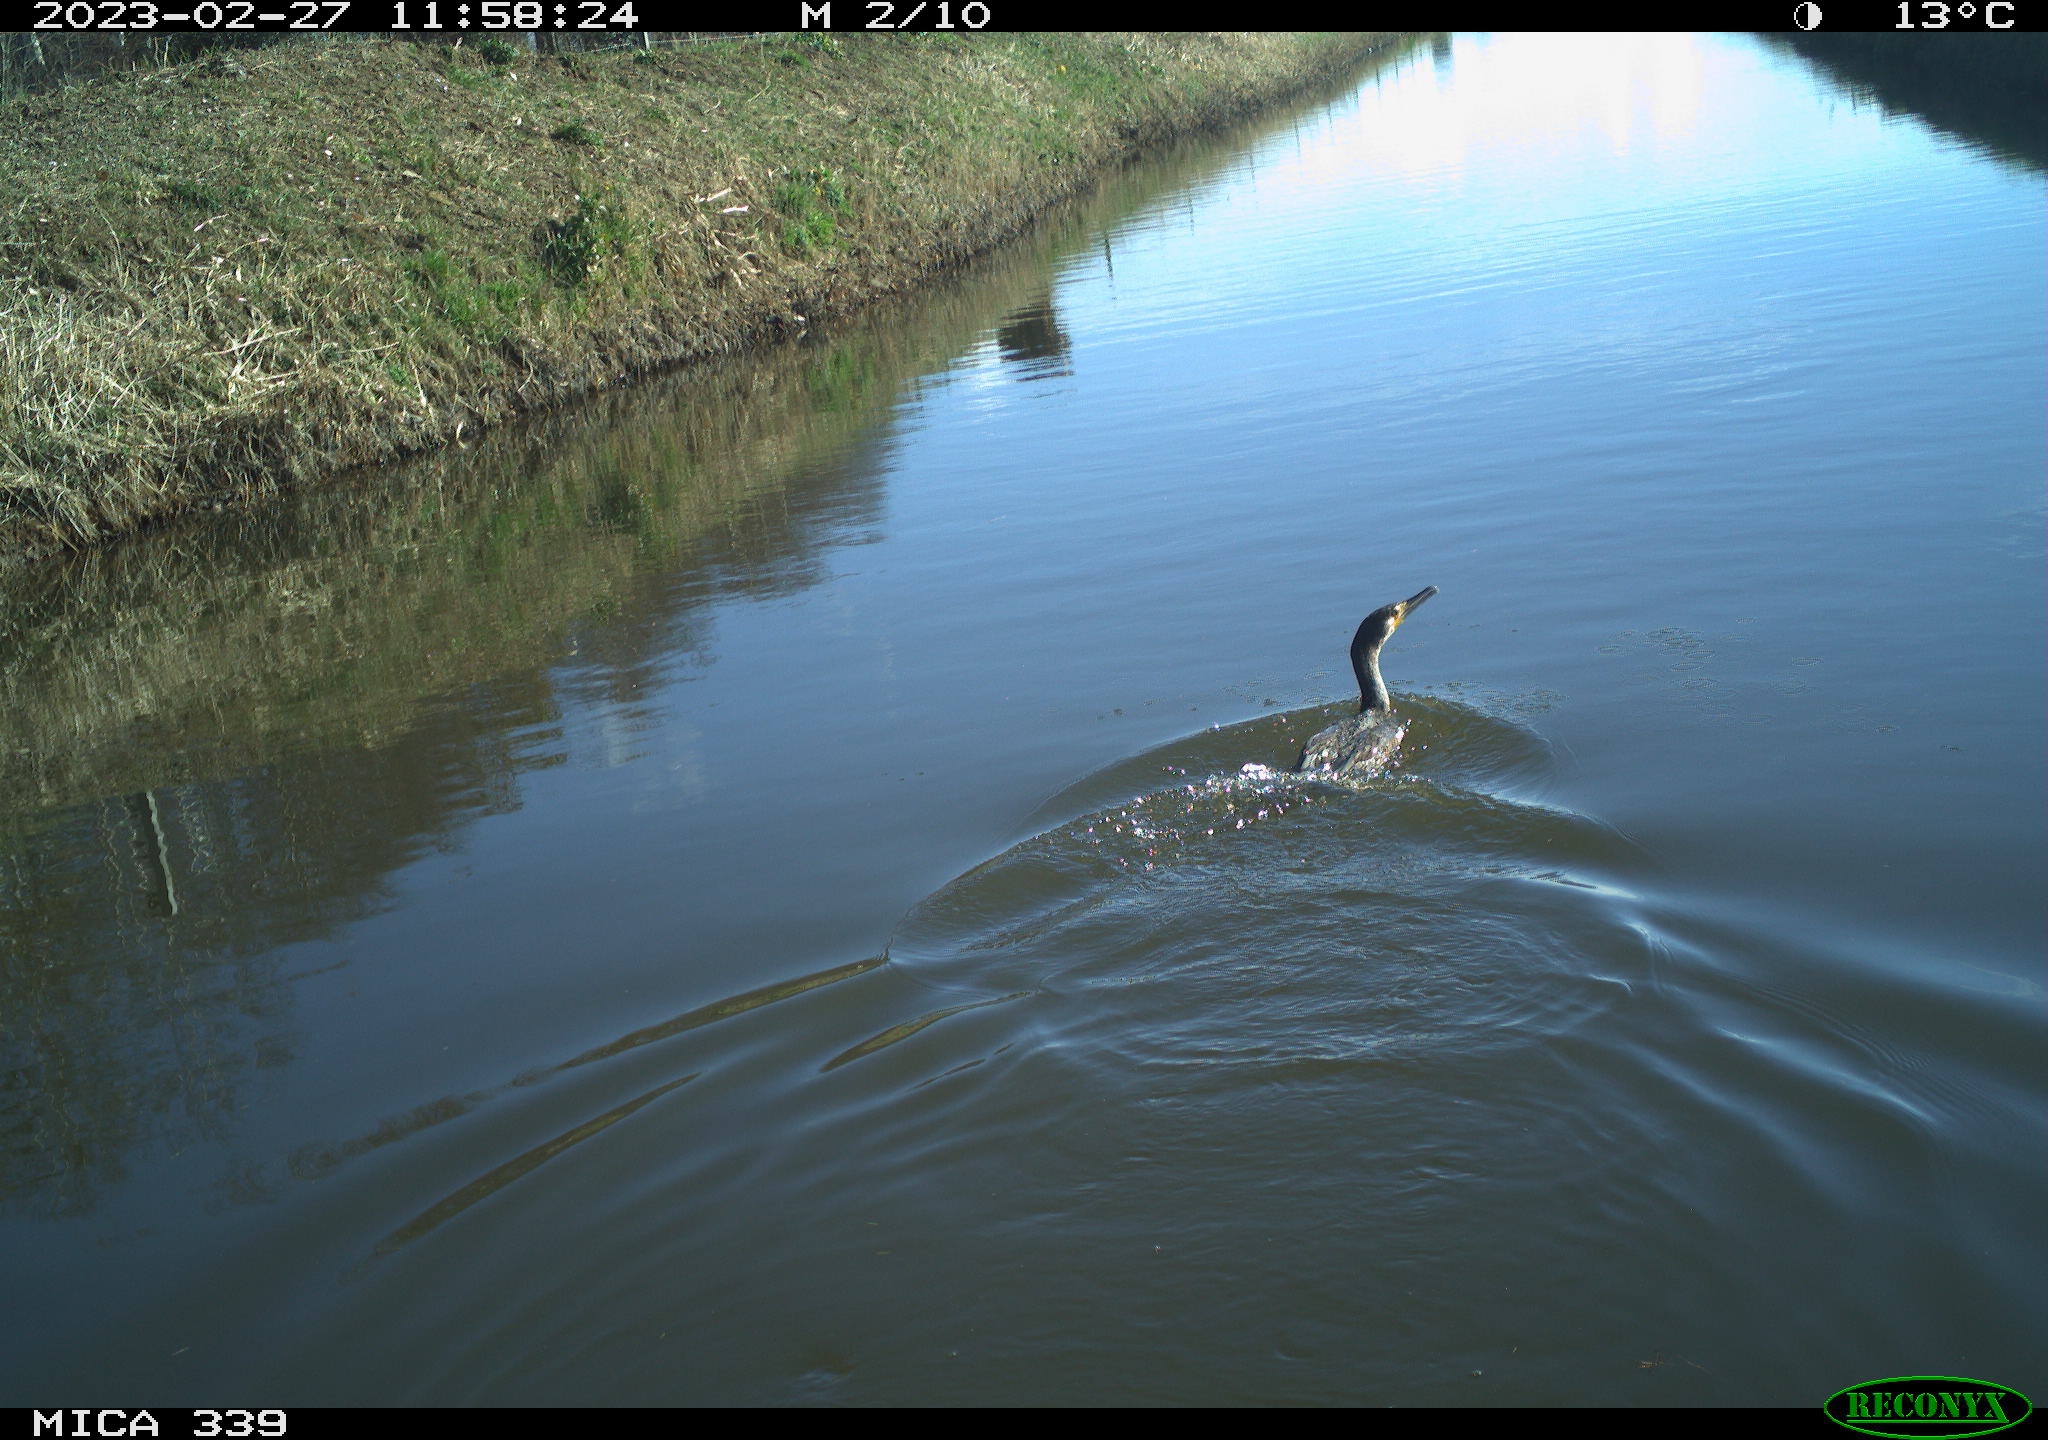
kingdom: Animalia
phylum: Chordata
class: Aves
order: Suliformes
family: Phalacrocoracidae
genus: Phalacrocorax
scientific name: Phalacrocorax carbo
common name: Great cormorant
